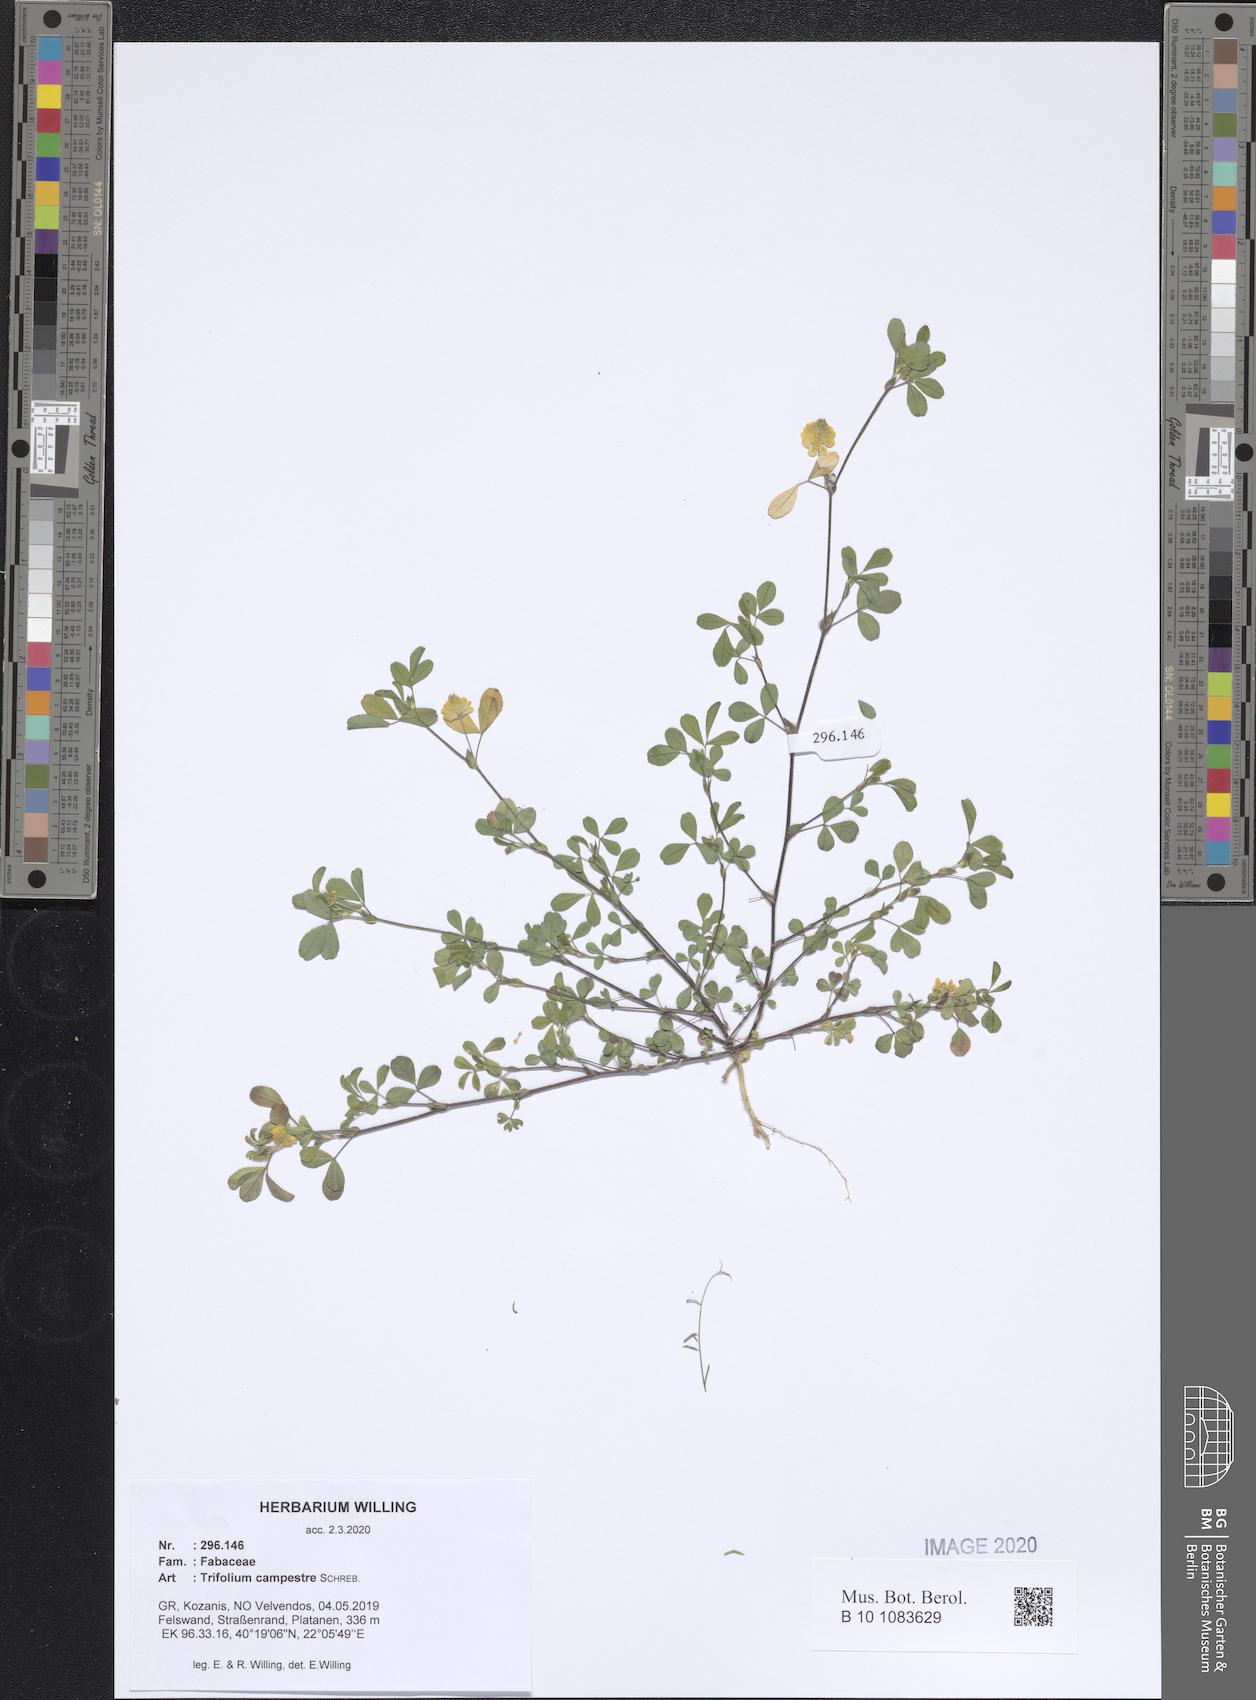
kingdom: Plantae
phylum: Tracheophyta
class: Magnoliopsida
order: Fabales
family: Fabaceae
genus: Trifolium
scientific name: Trifolium campestre
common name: Field clover
